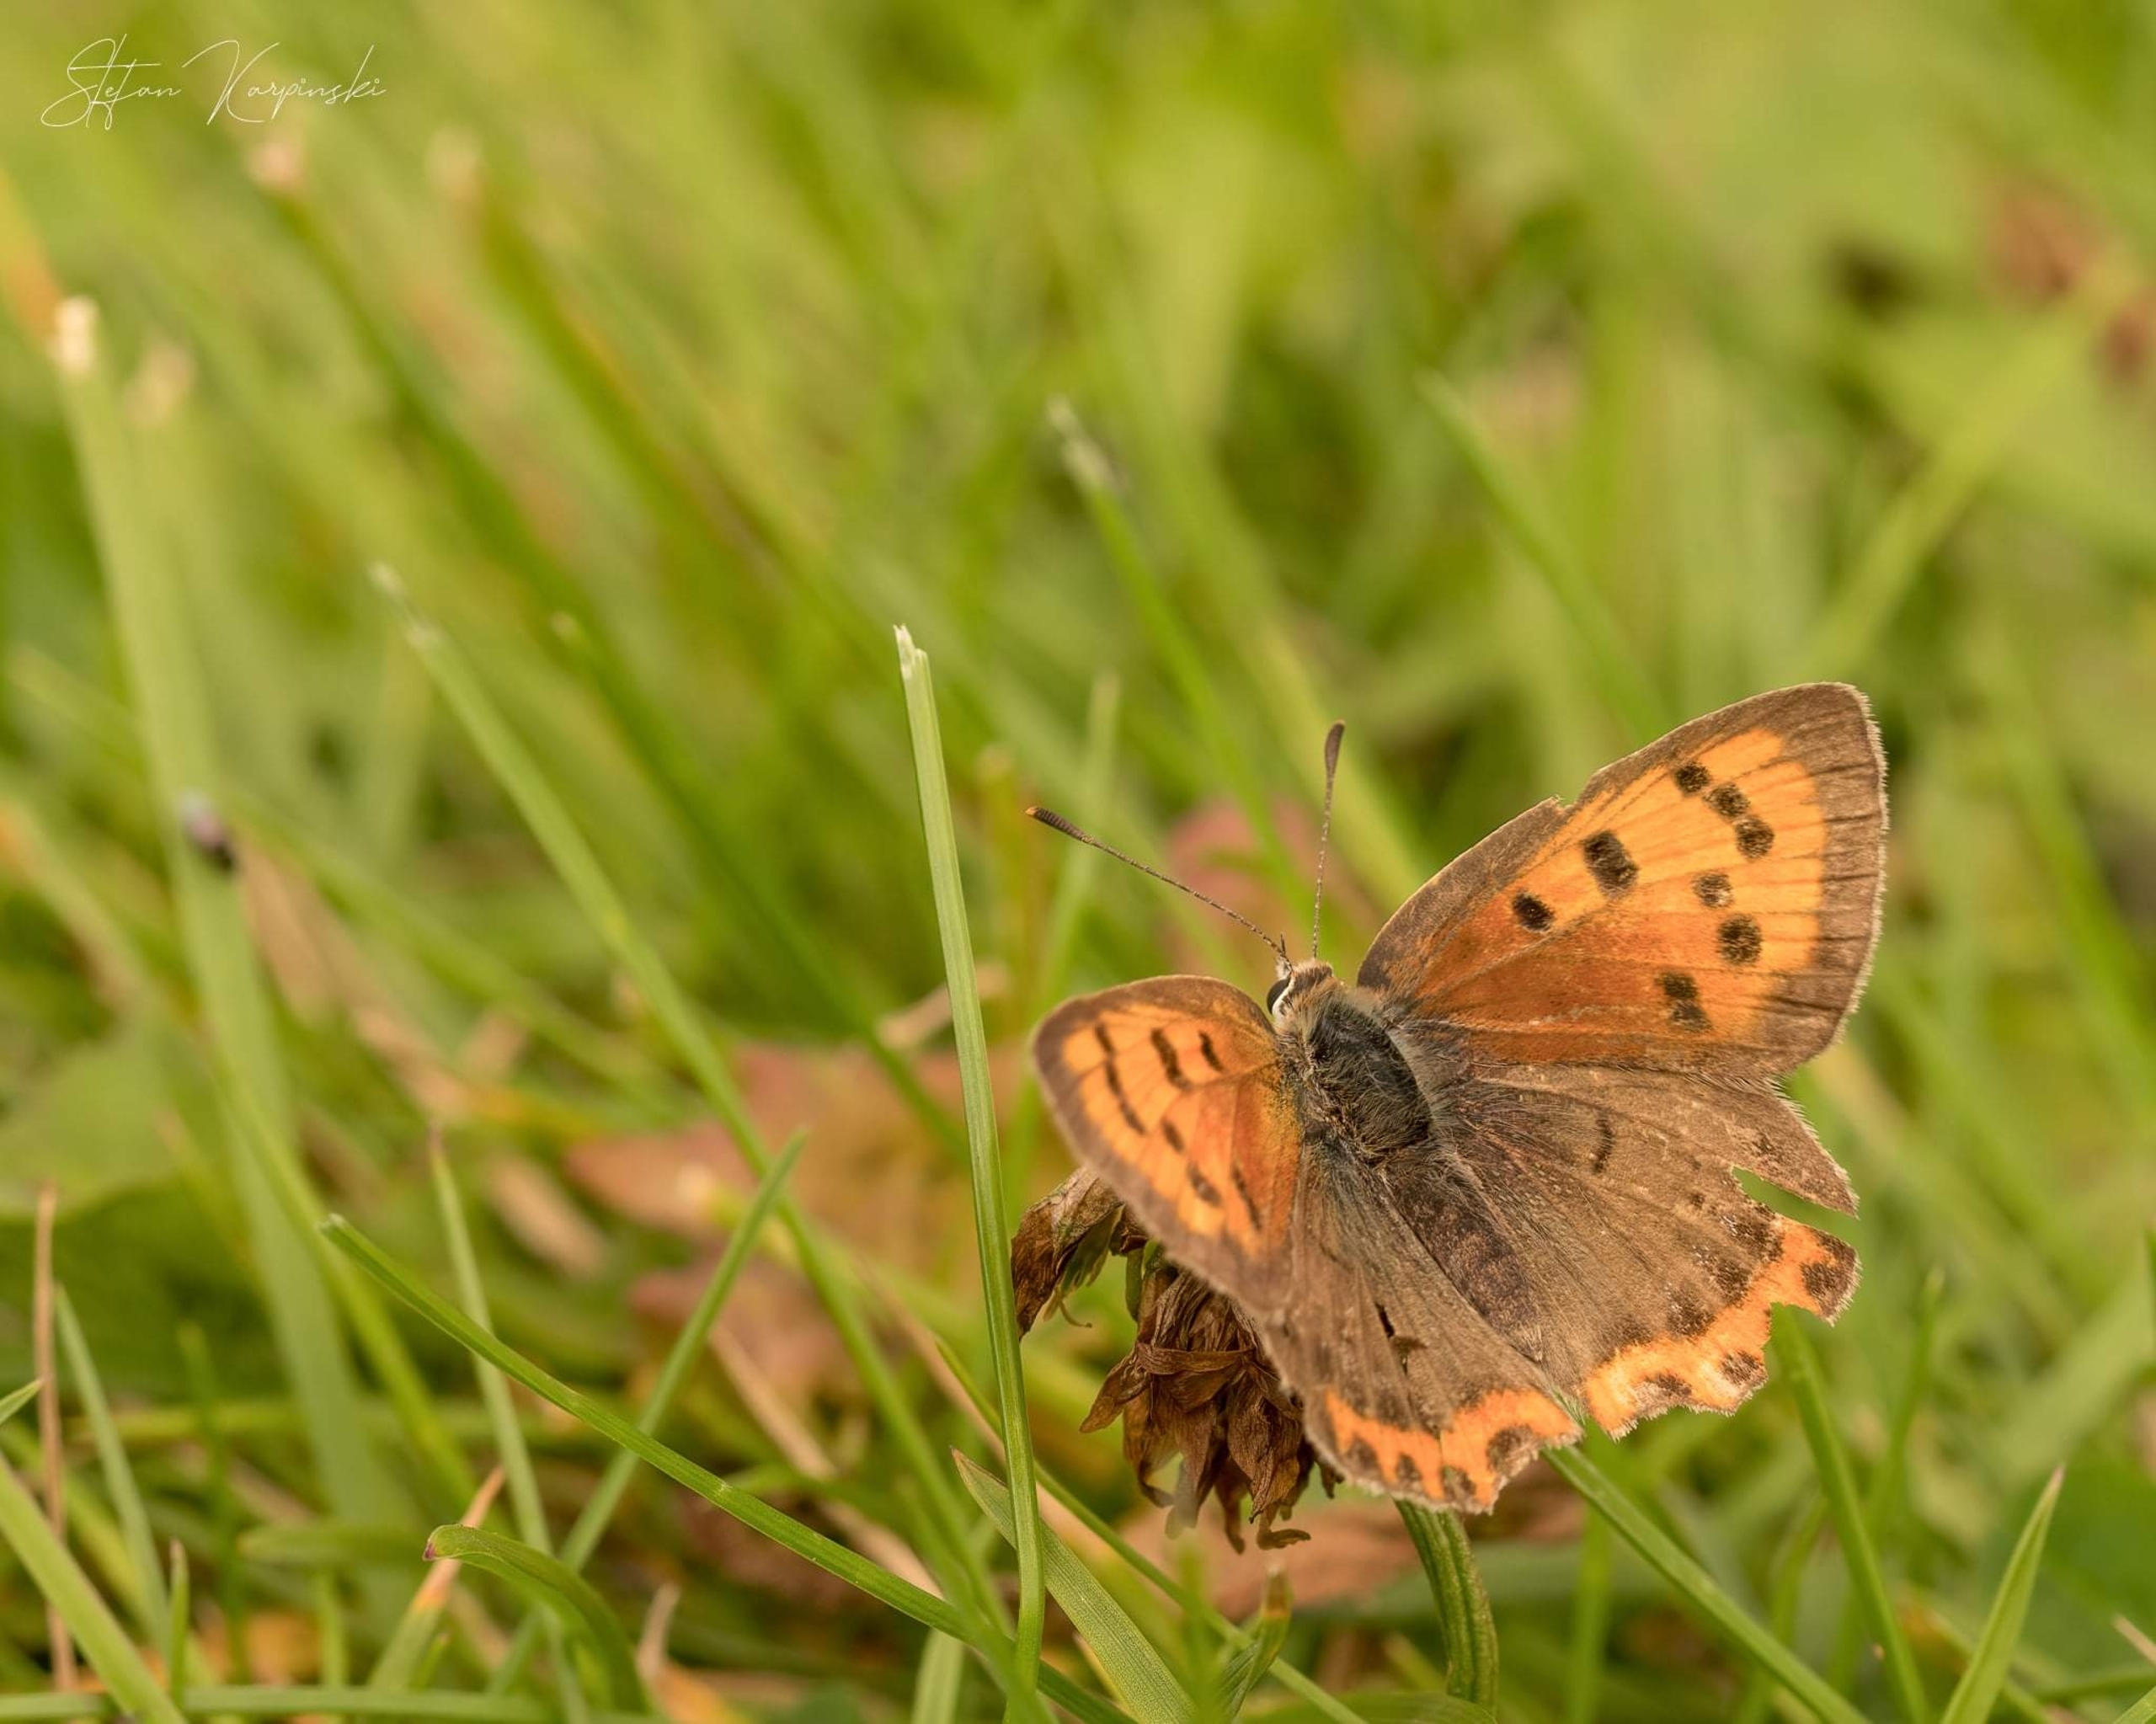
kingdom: Animalia
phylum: Arthropoda
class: Insecta
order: Lepidoptera
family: Lycaenidae
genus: Lycaena
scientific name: Lycaena phlaeas
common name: Lille ildfugl
